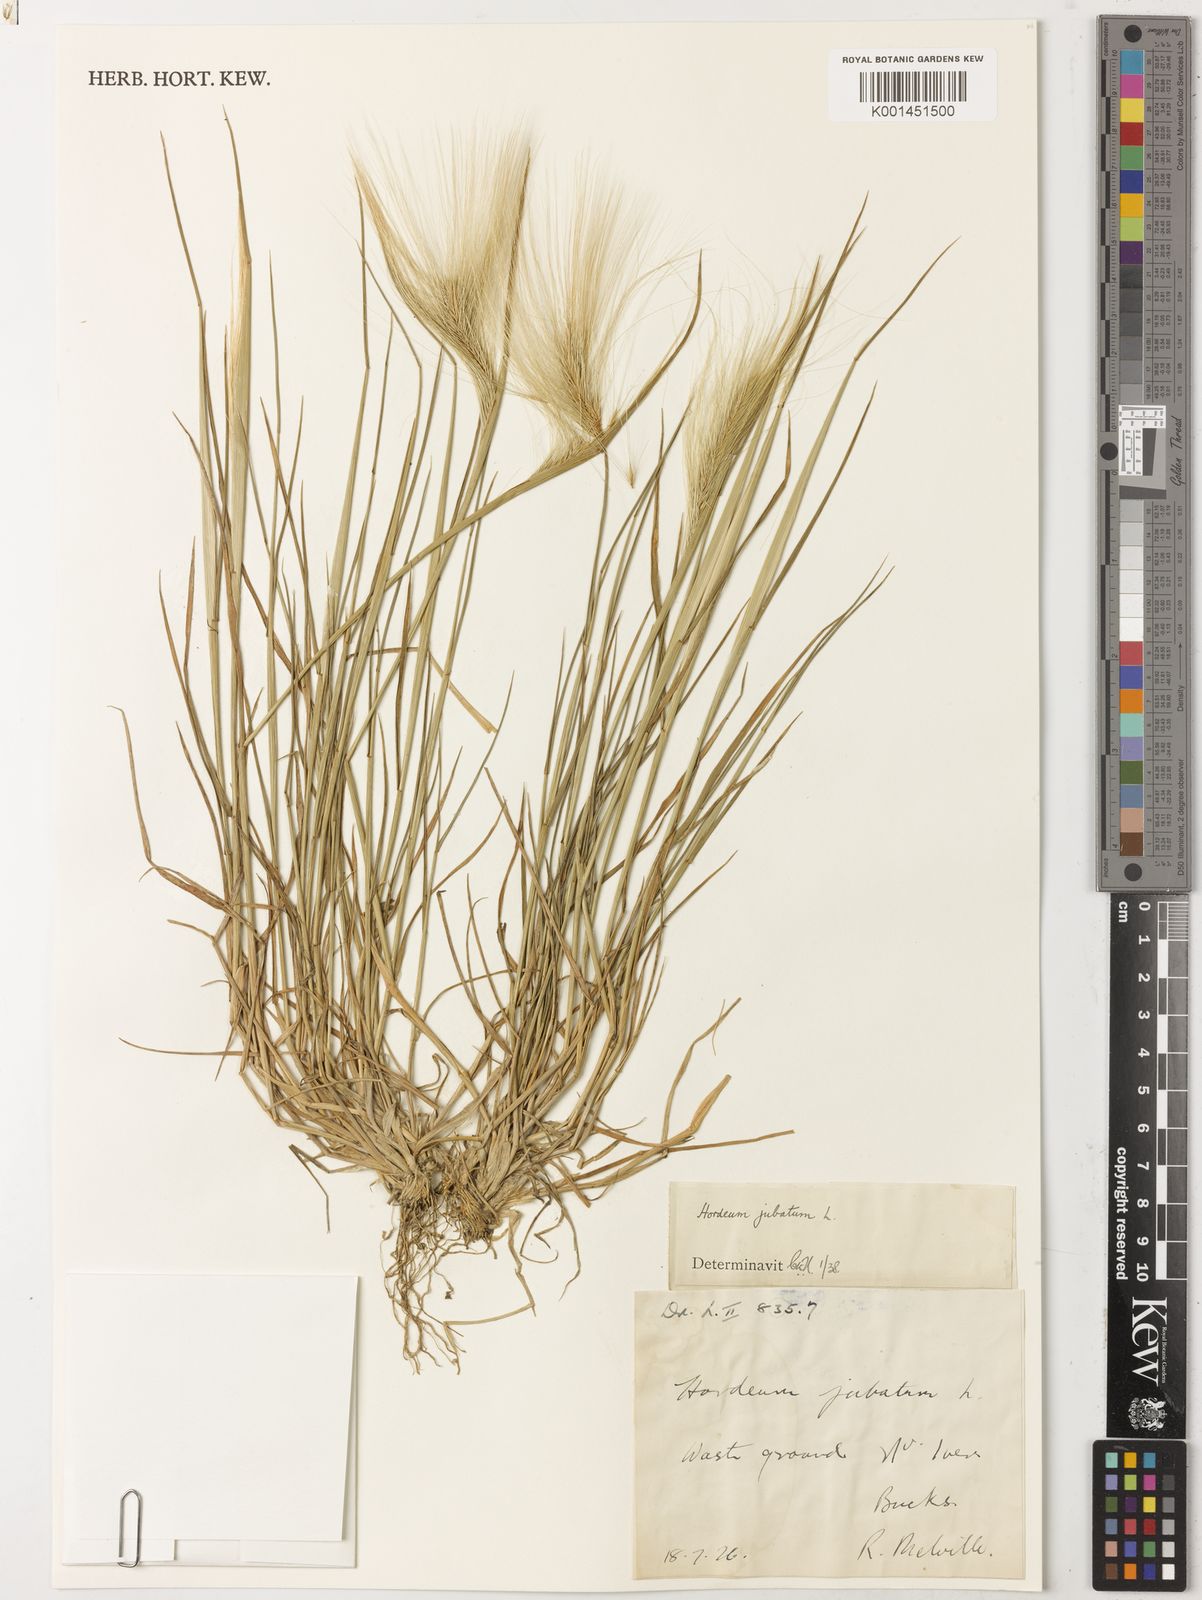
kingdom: Plantae
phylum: Tracheophyta
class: Liliopsida
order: Poales
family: Poaceae
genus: Hordeum
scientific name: Hordeum jubatum
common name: Foxtail barley
